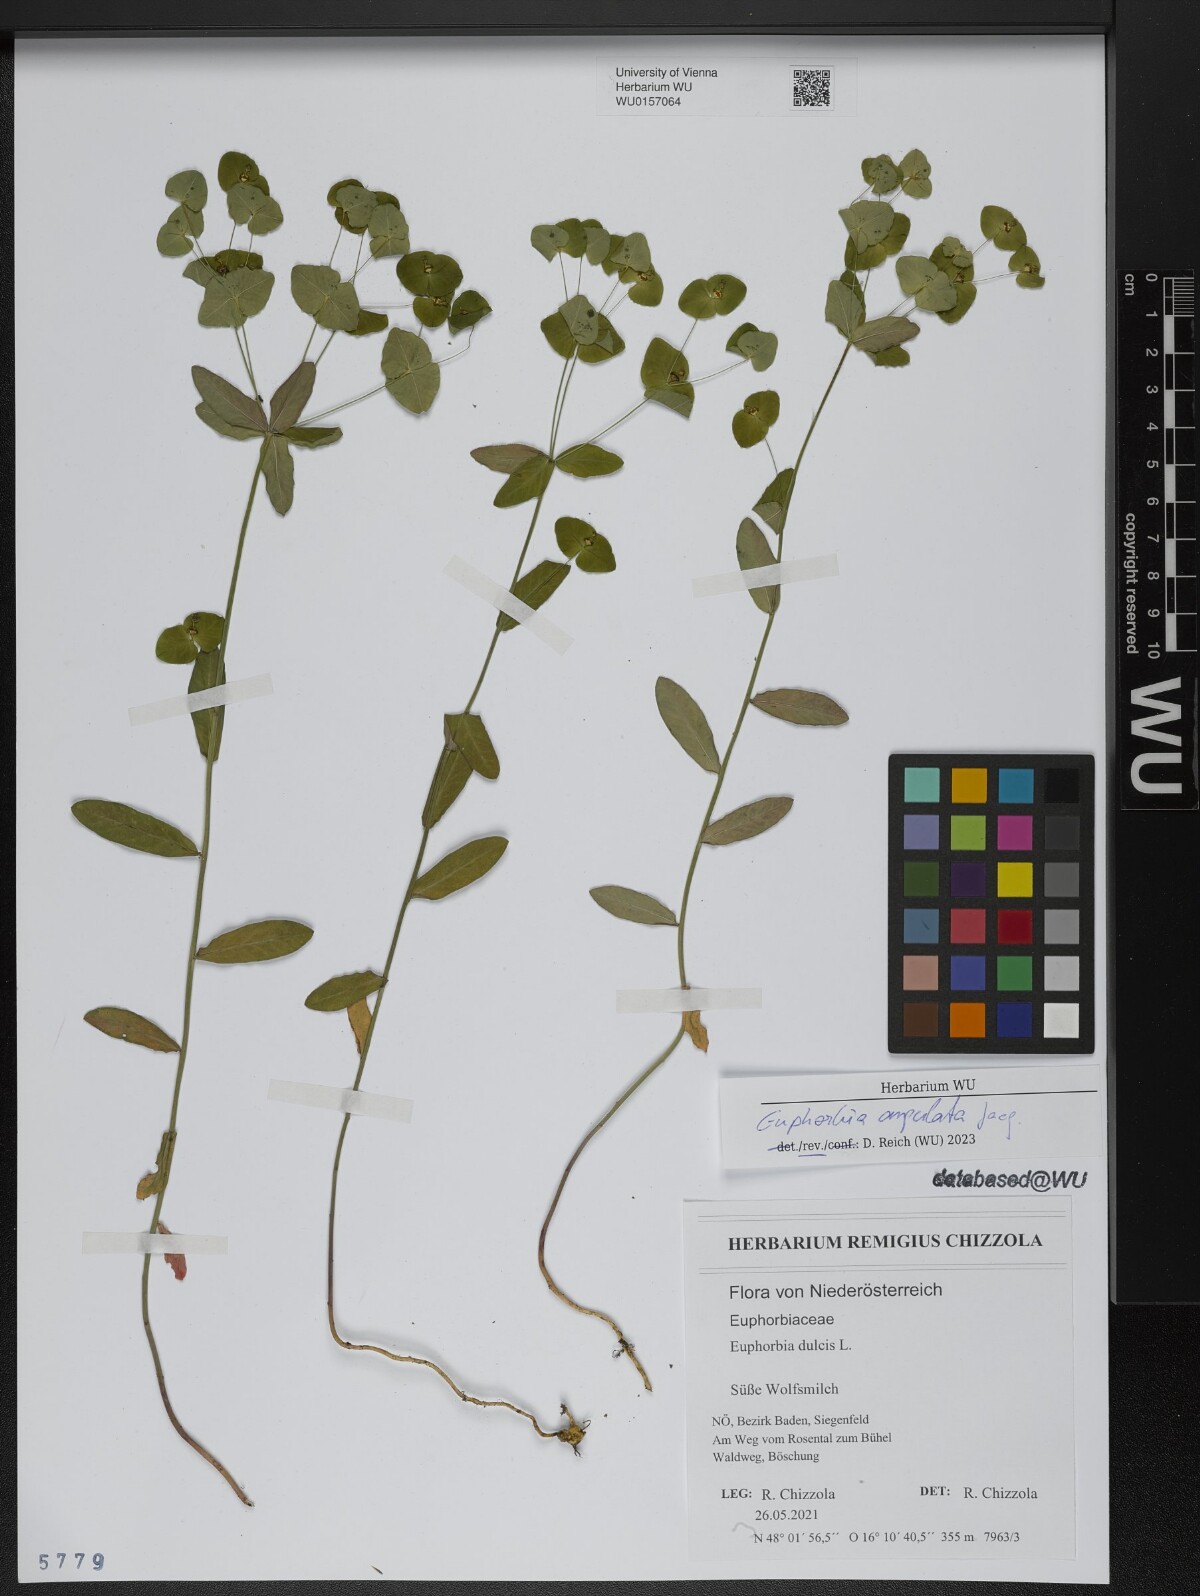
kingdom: Plantae
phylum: Tracheophyta
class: Magnoliopsida
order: Malpighiales
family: Euphorbiaceae
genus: Euphorbia
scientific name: Euphorbia angulata
